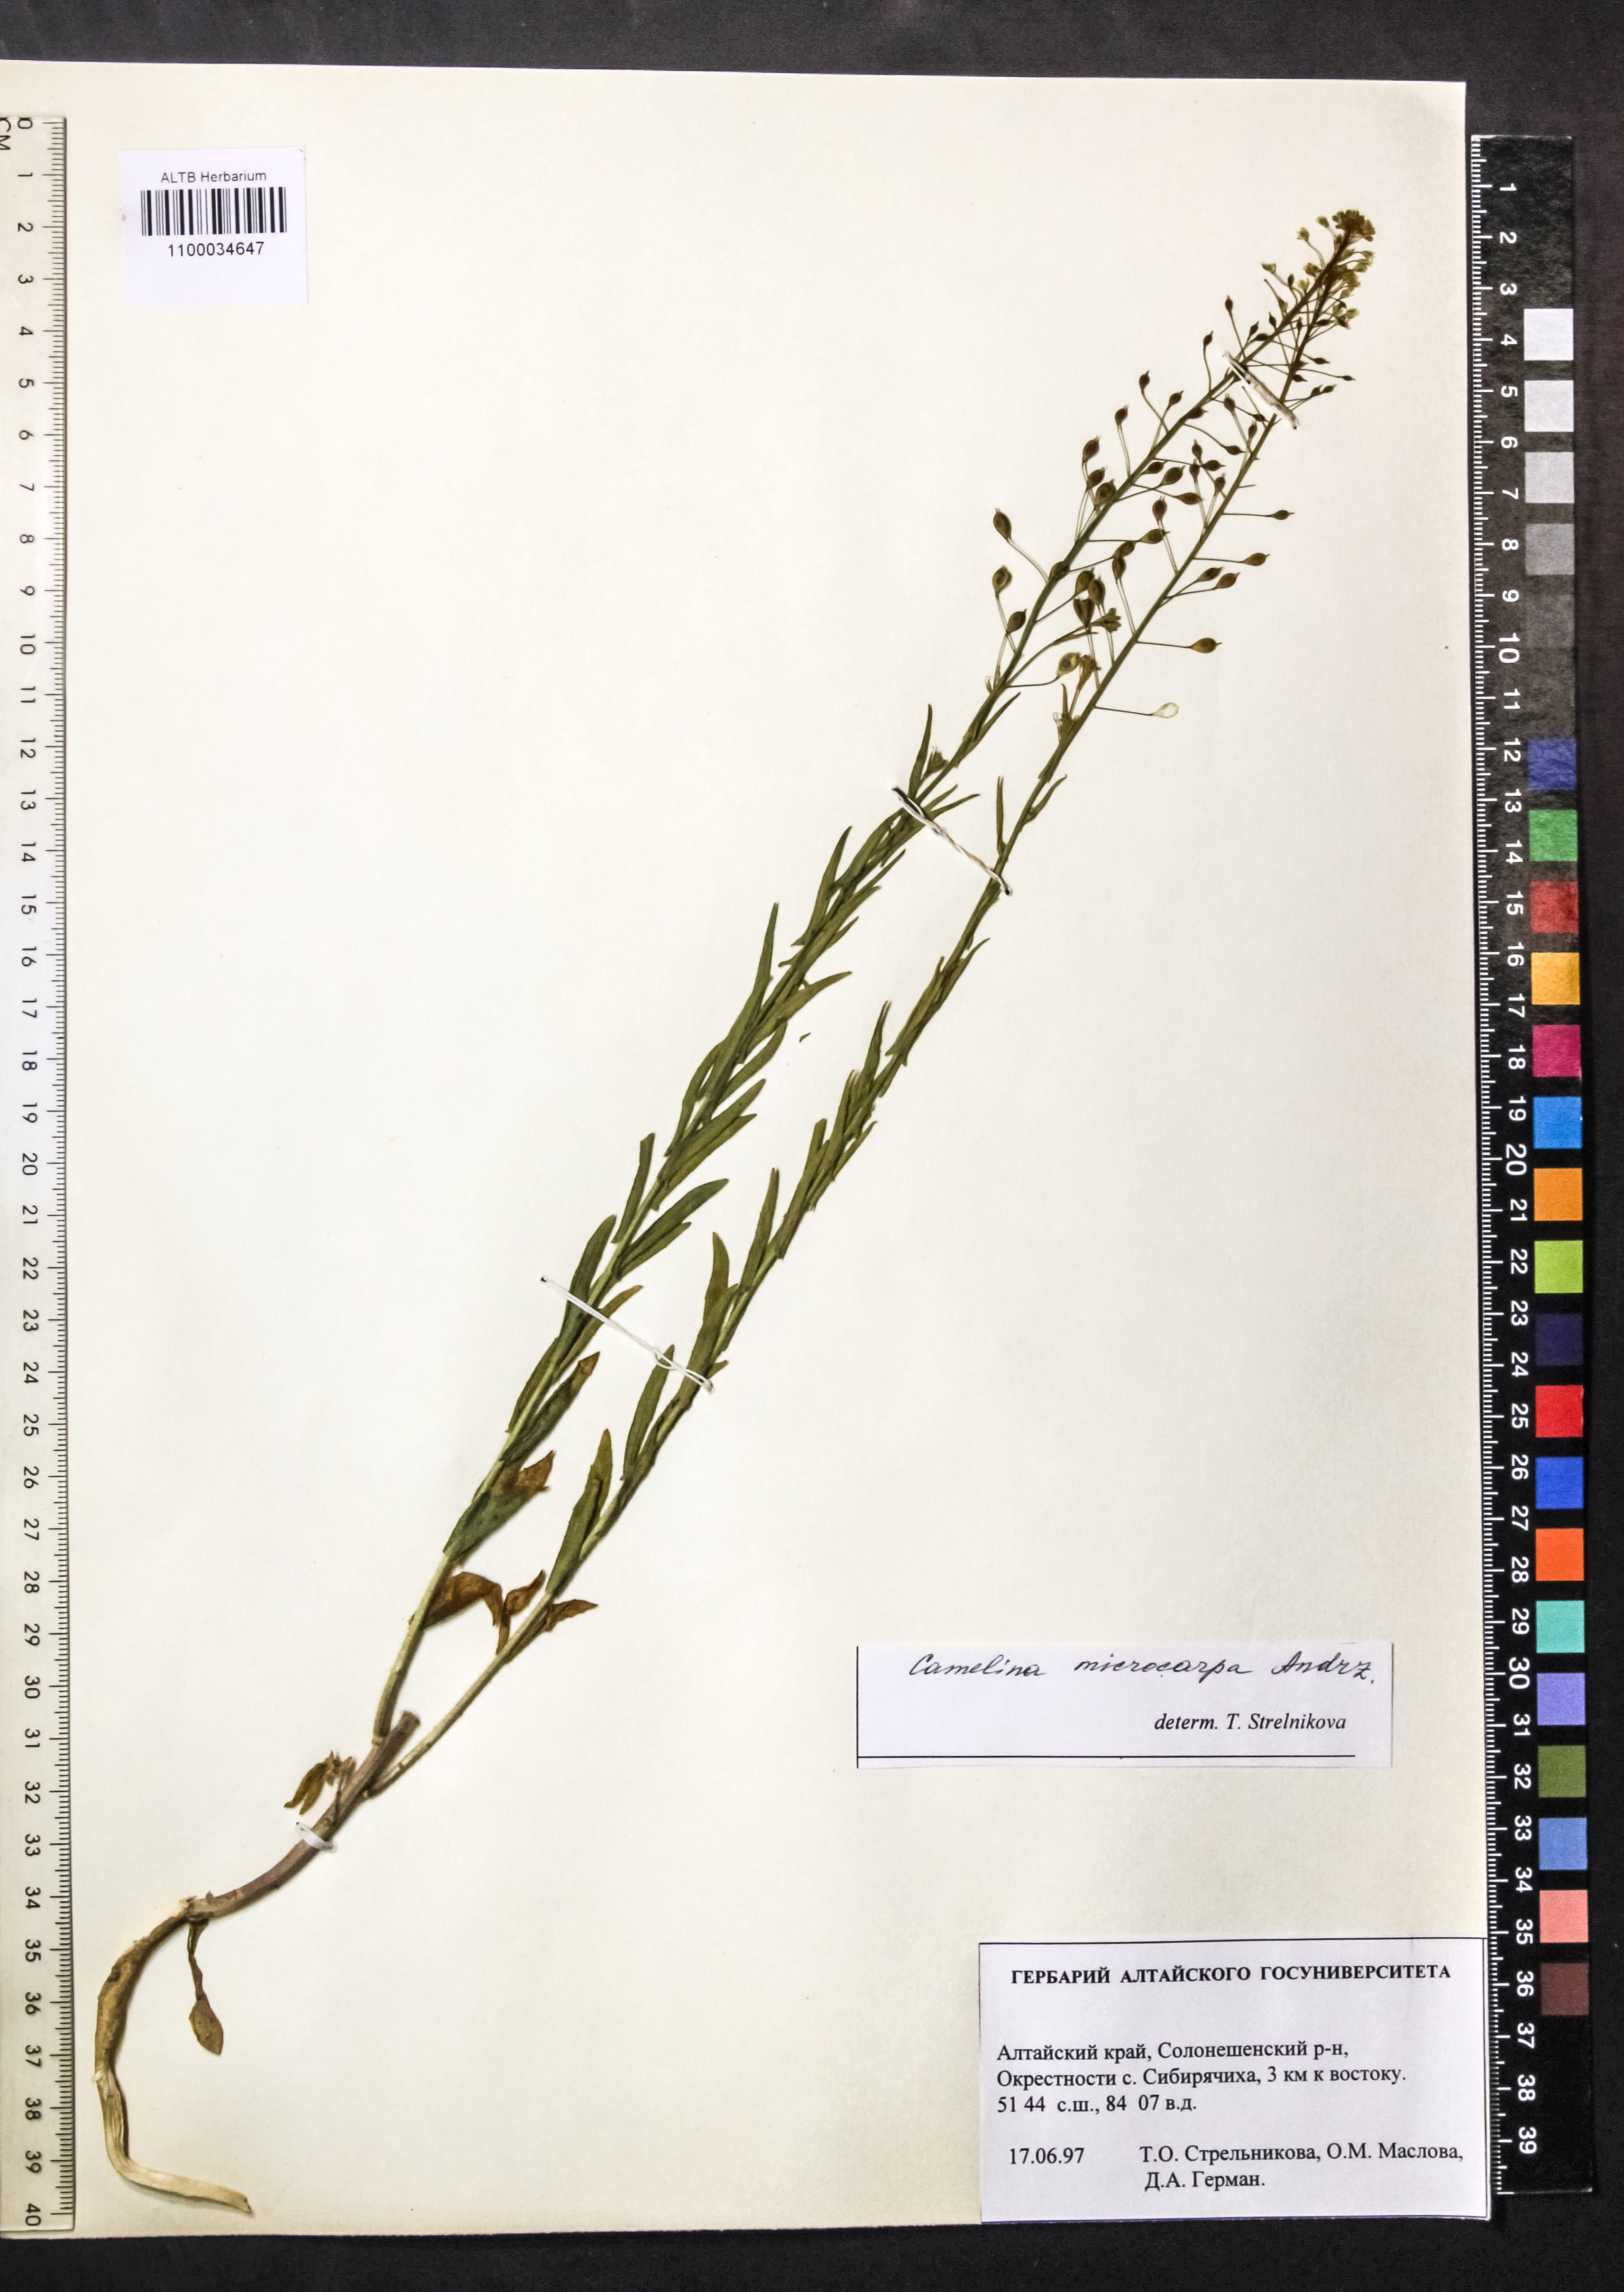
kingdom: Plantae
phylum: Tracheophyta
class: Magnoliopsida
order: Brassicales
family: Brassicaceae
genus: Camelina
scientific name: Camelina microcarpa
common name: Lesser gold-of-pleasure
